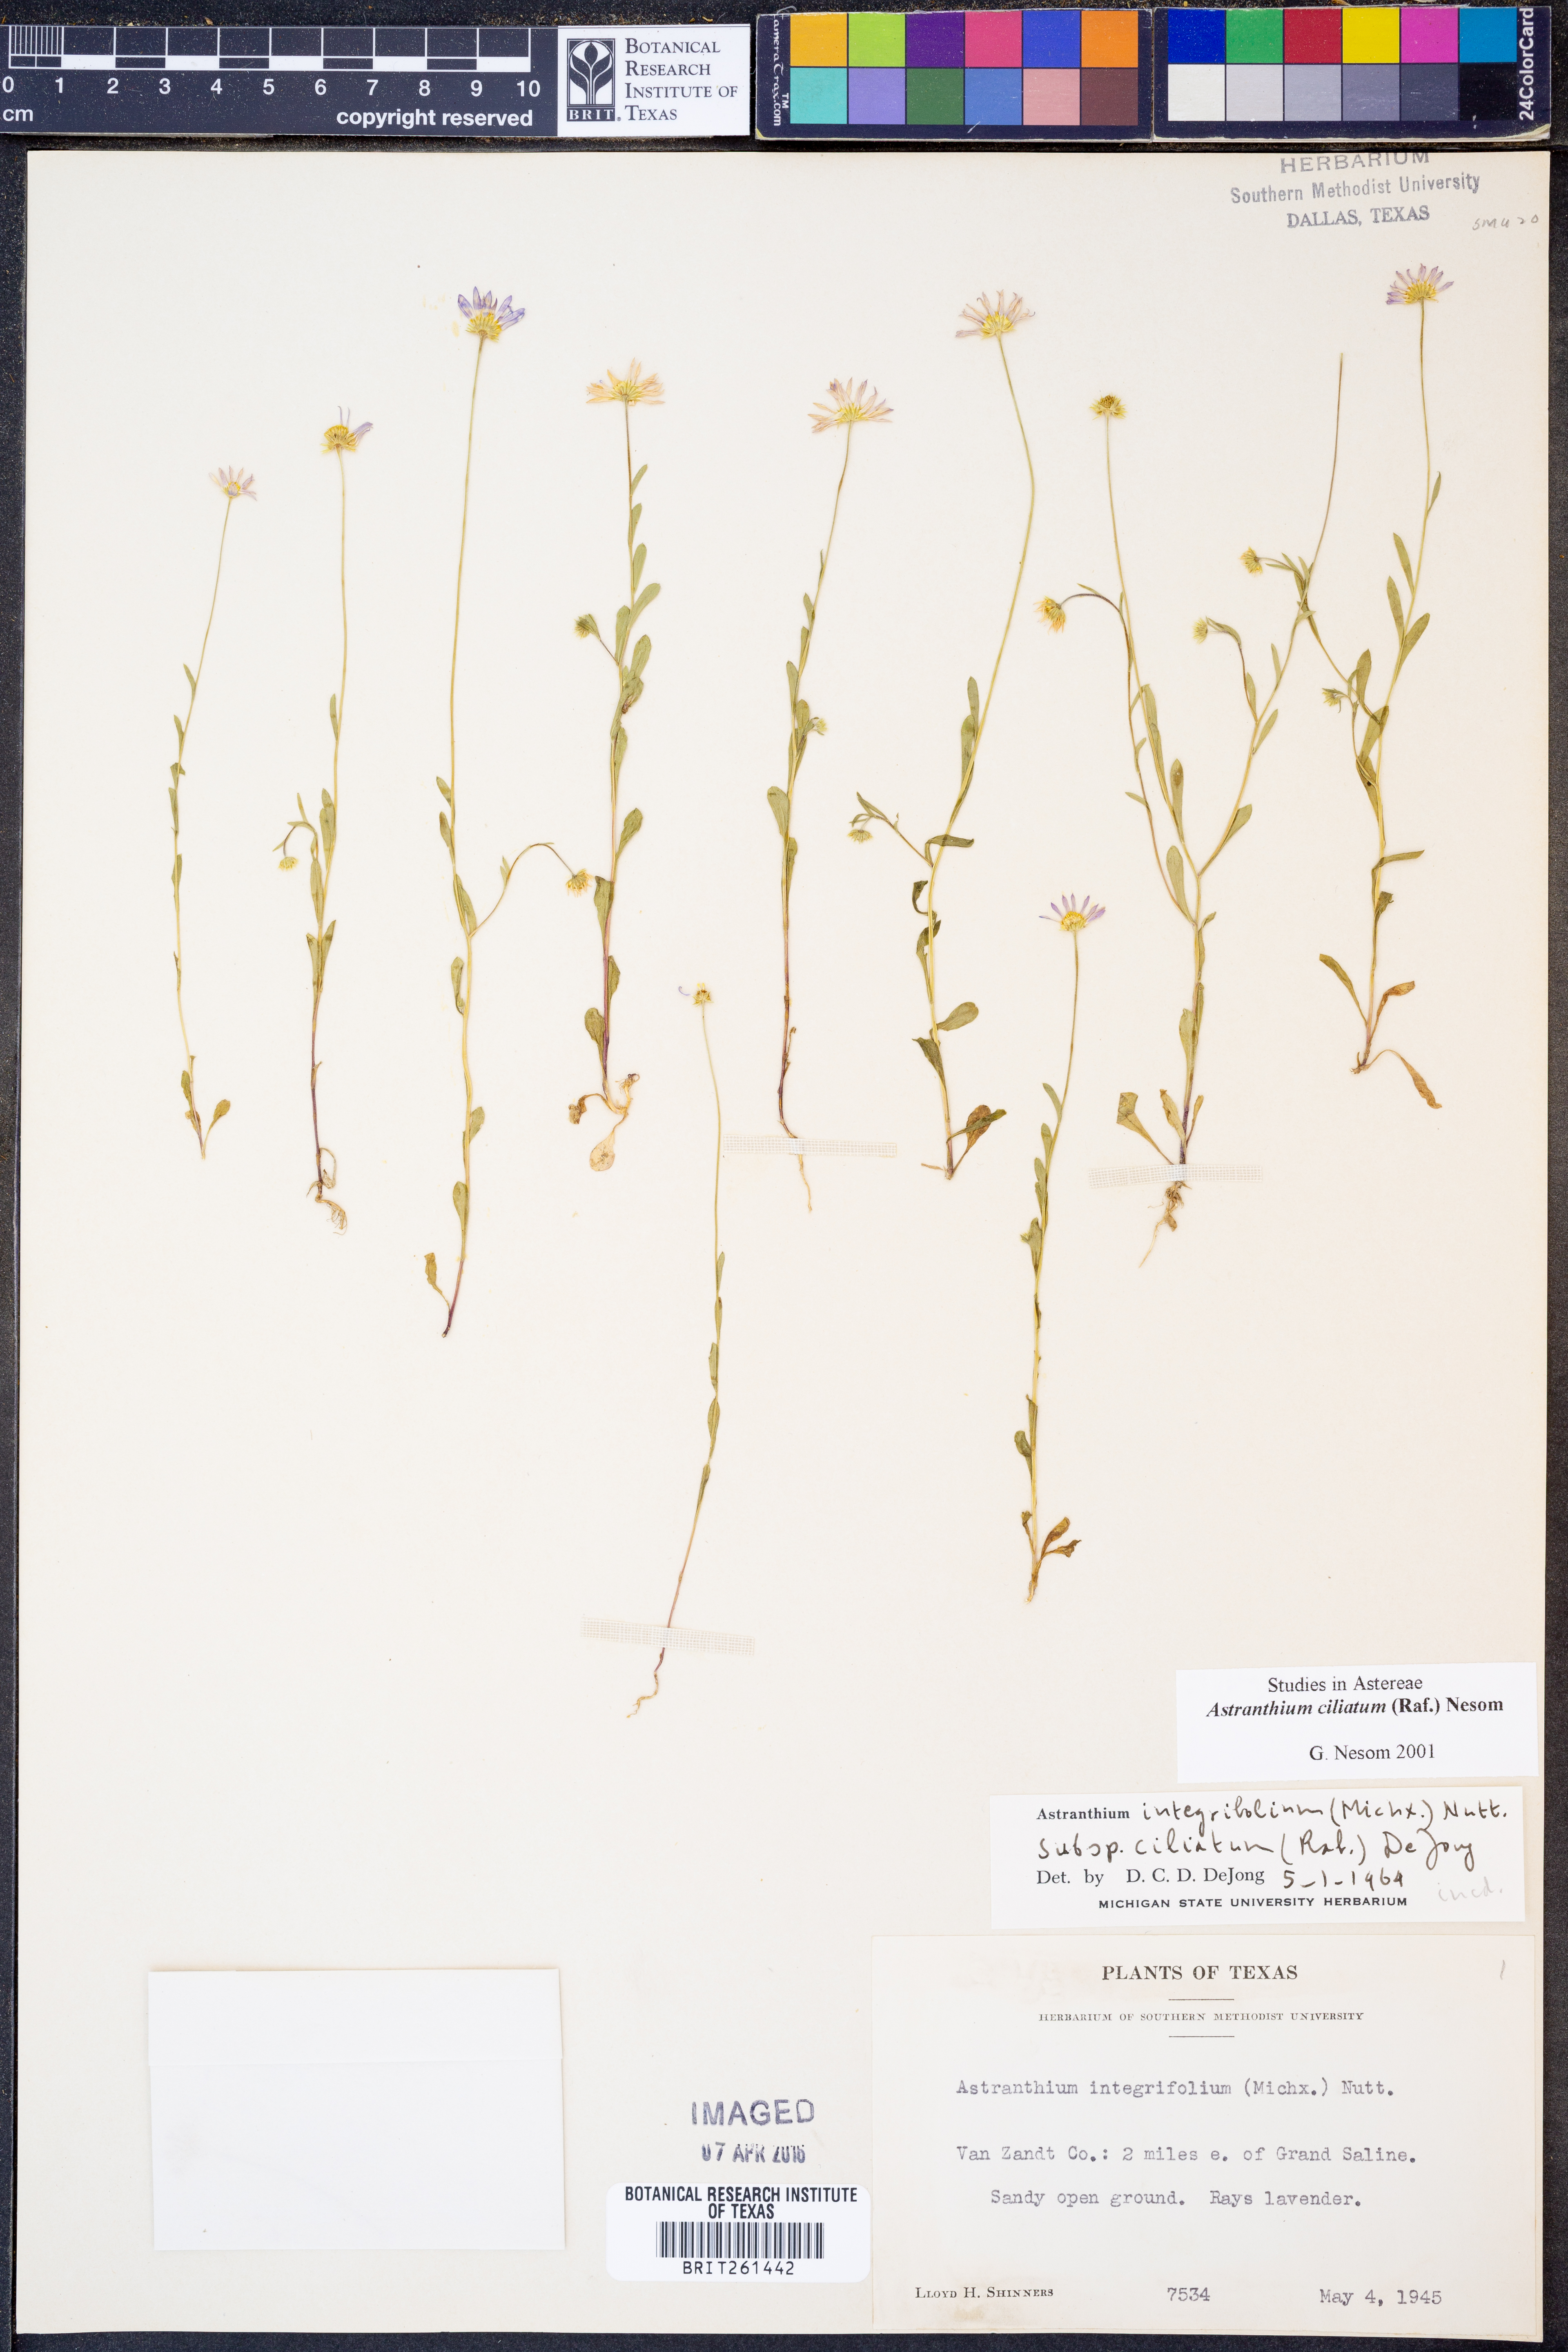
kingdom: Plantae
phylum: Tracheophyta
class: Magnoliopsida
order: Asterales
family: Asteraceae
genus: Astranthium
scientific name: Astranthium ciliatum
